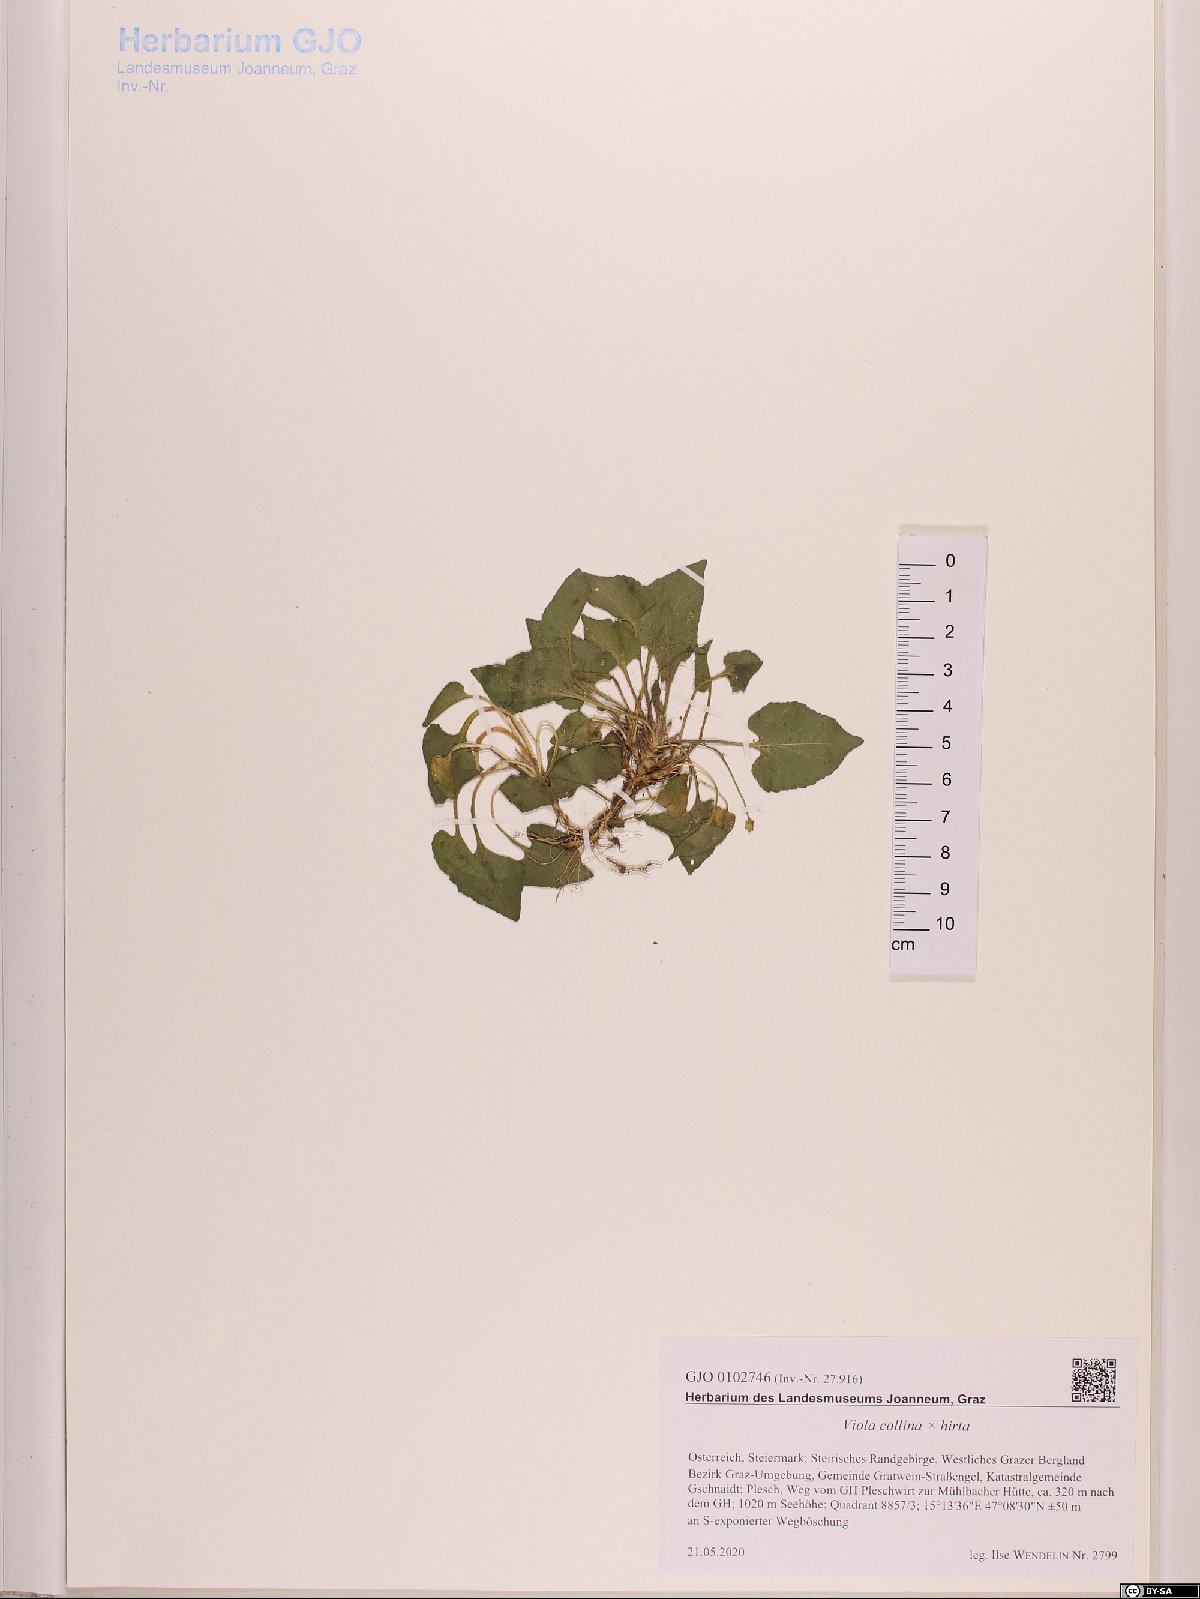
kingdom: Plantae
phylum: Tracheophyta
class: Magnoliopsida
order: Malpighiales
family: Violaceae
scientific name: Violaceae
